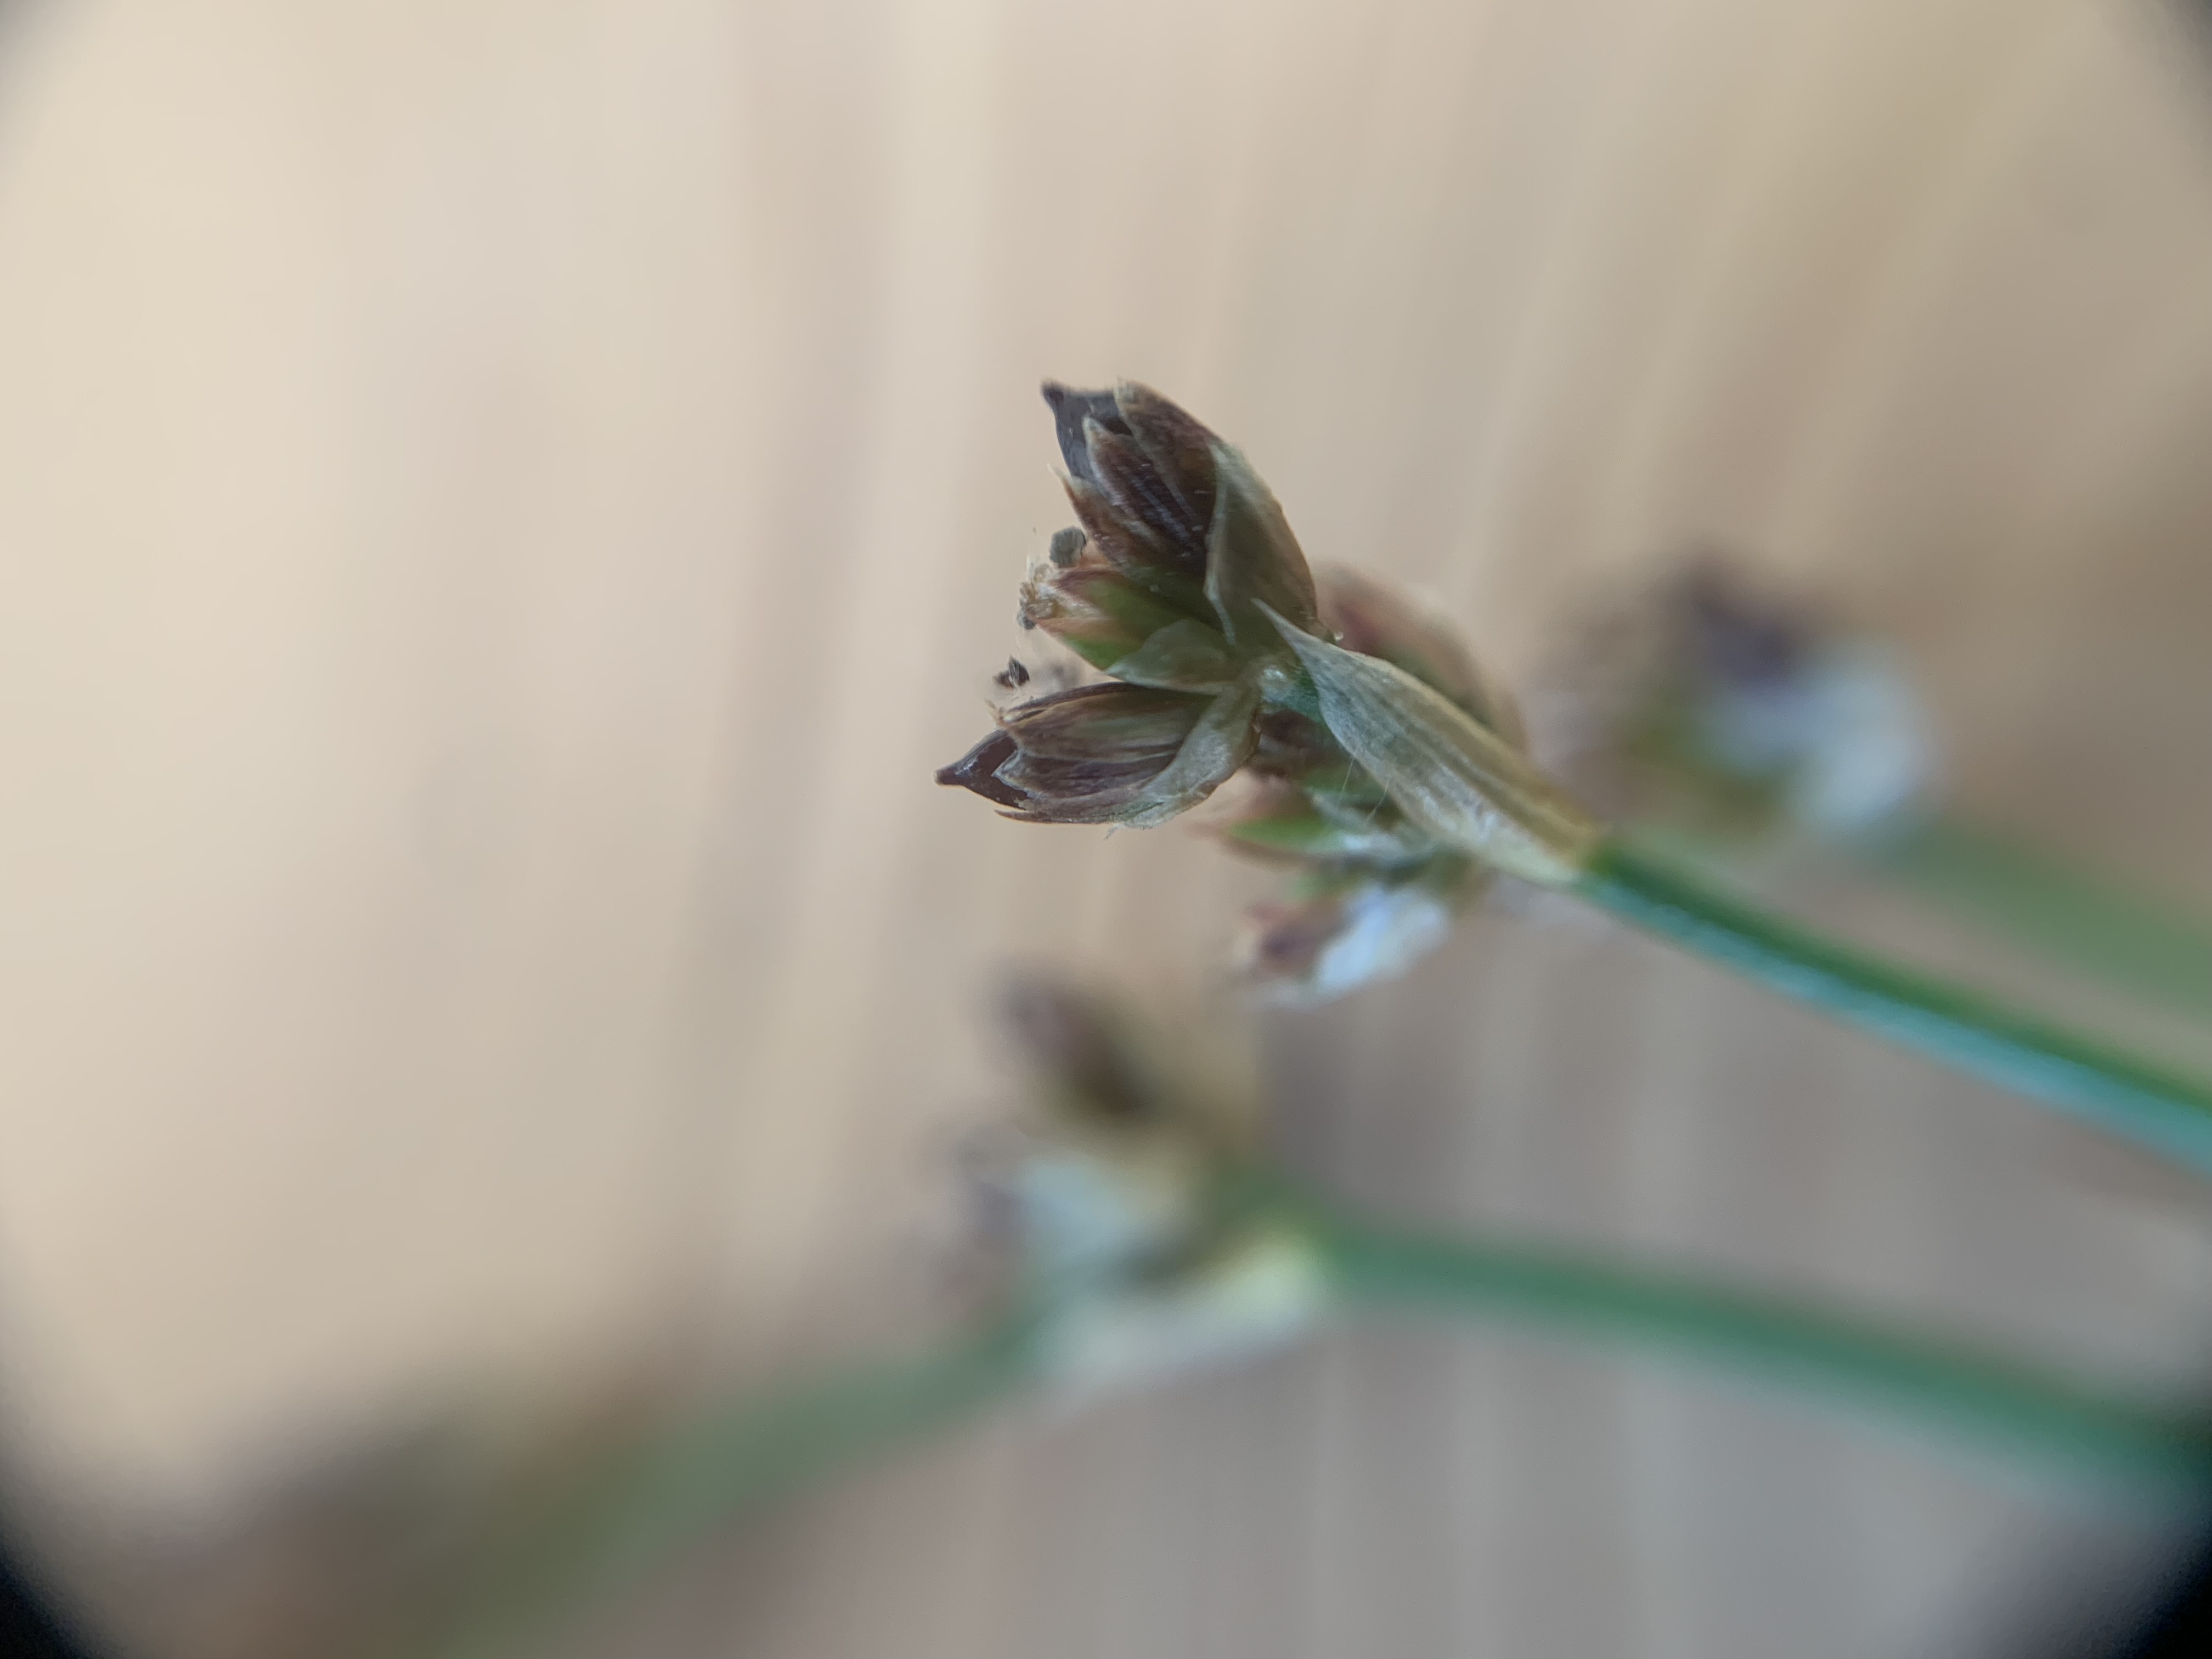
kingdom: Plantae
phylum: Tracheophyta
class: Liliopsida
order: Poales
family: Juncaceae
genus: Juncus
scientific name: Juncus articulatus
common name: Glanskapslet siv
